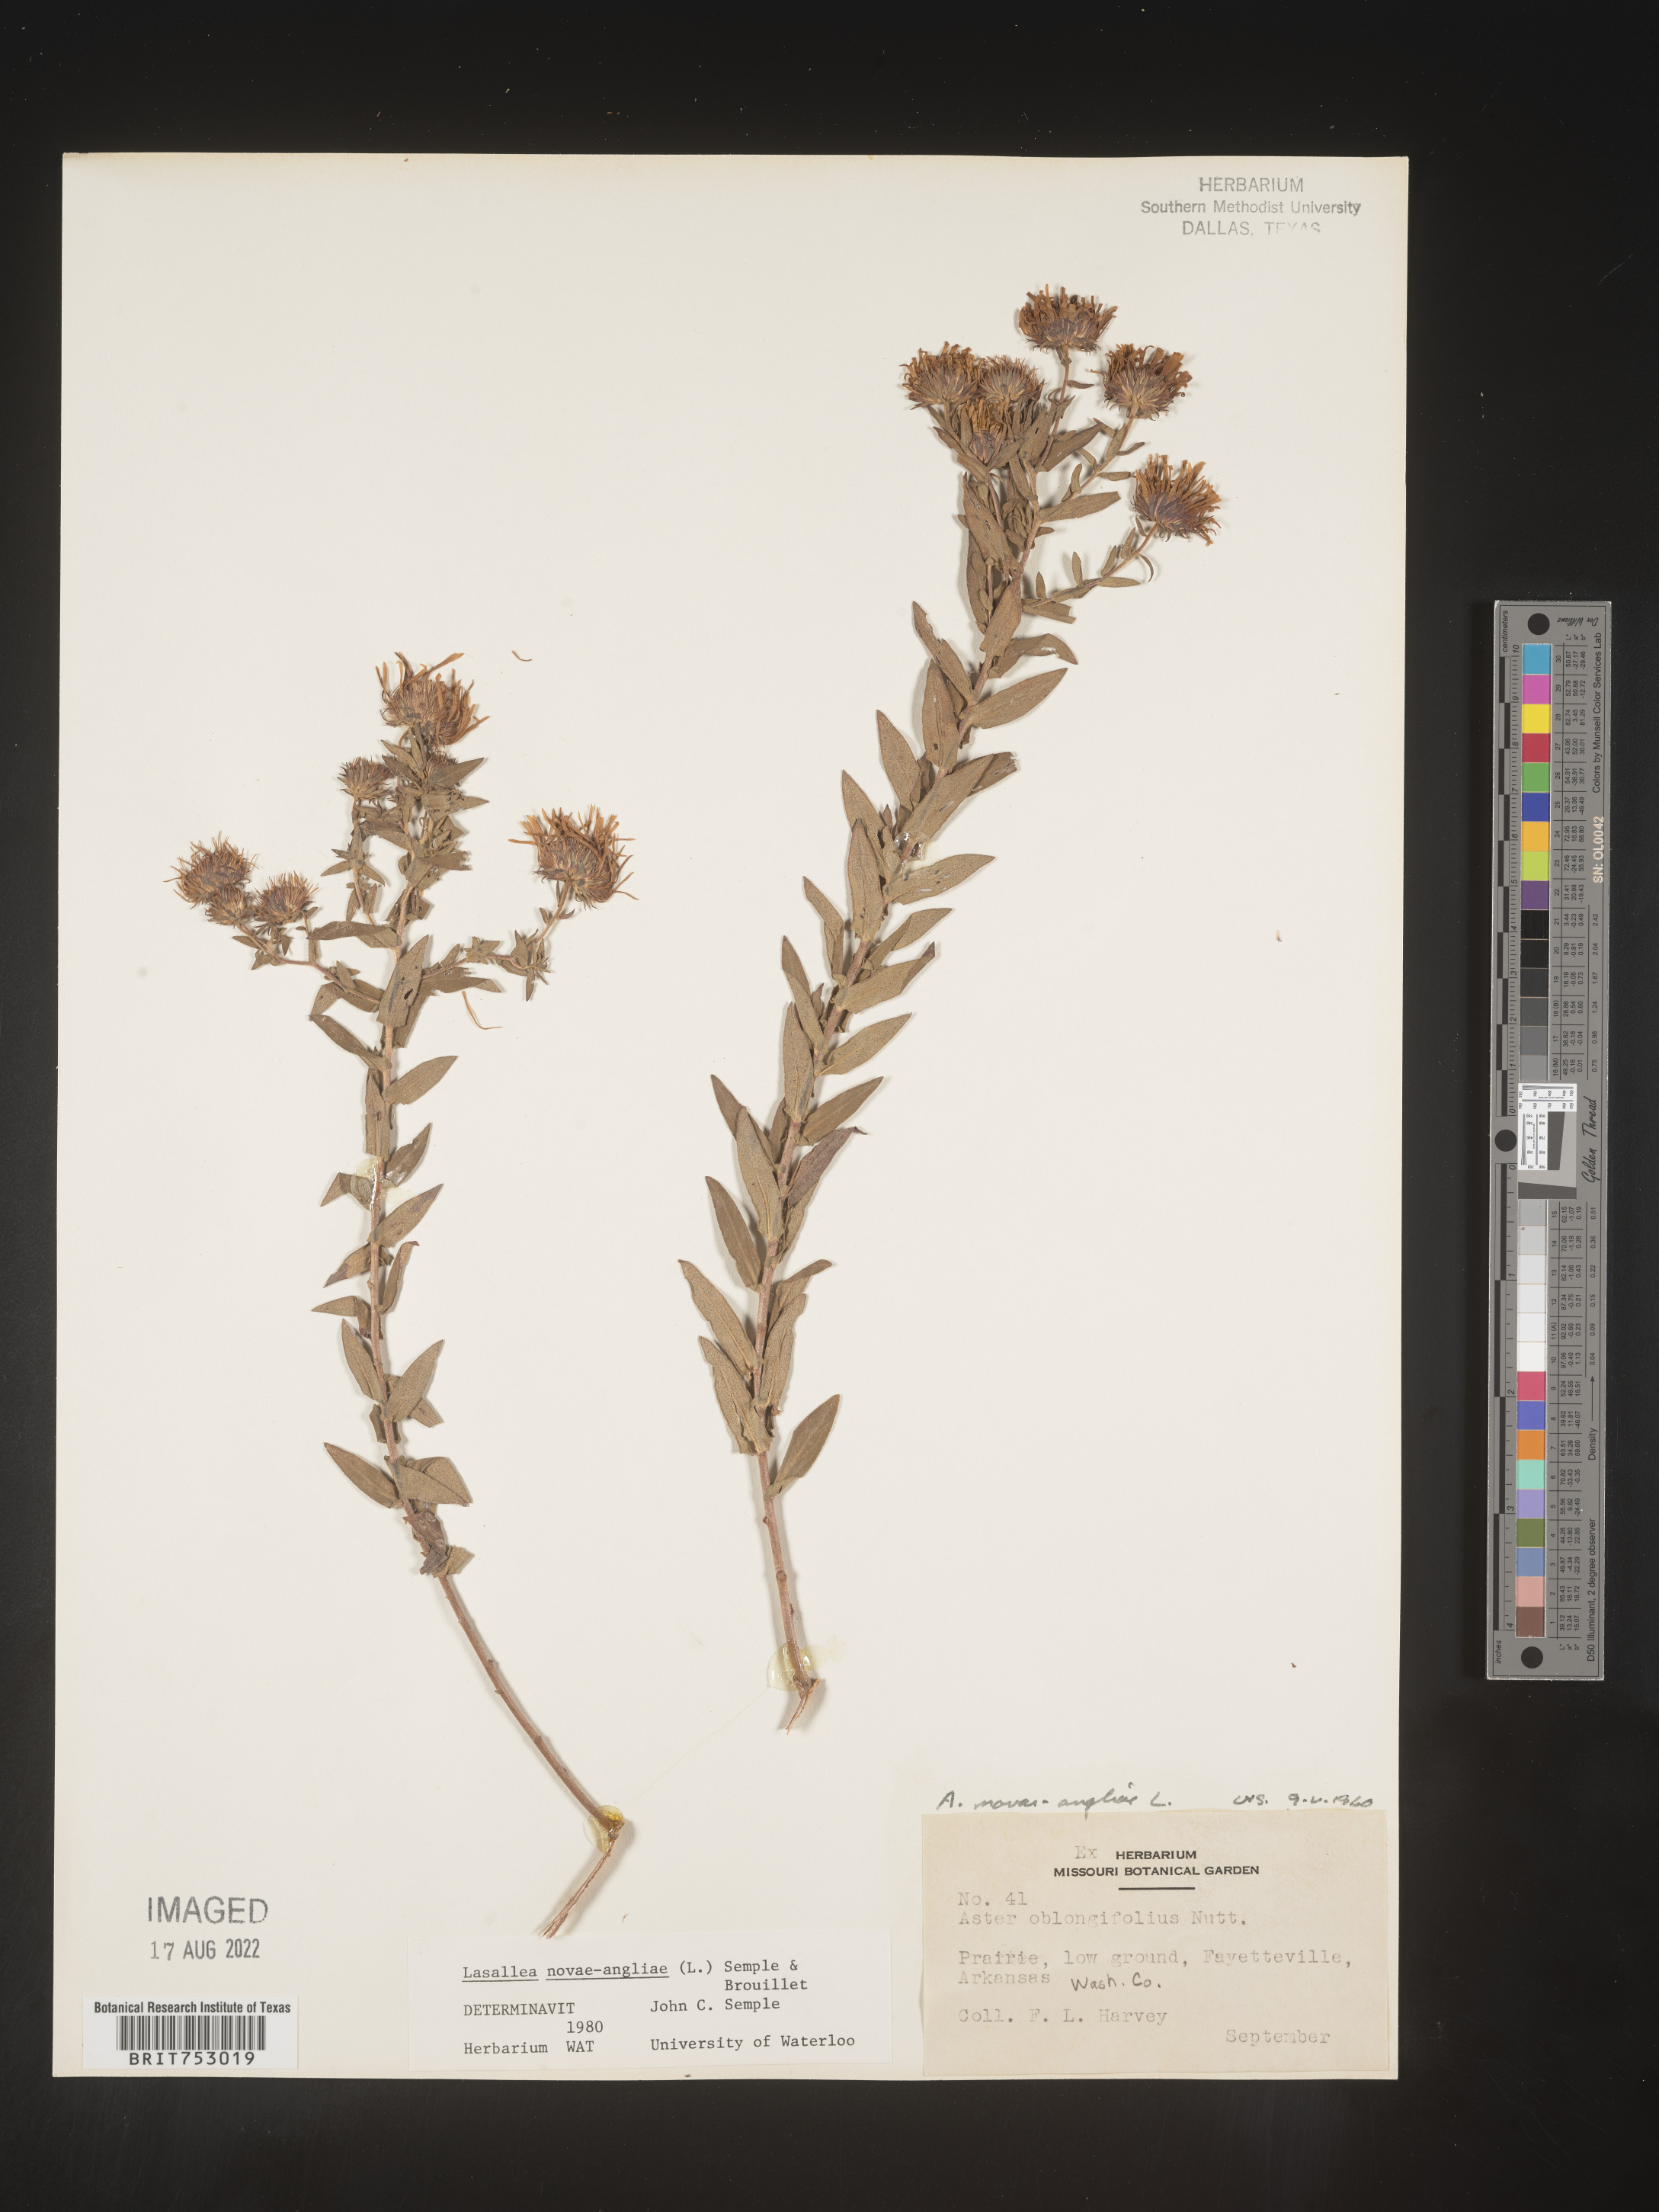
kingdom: Plantae
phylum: Tracheophyta
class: Magnoliopsida
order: Asterales
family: Asteraceae
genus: Symphyotrichum
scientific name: Symphyotrichum novae-angliae
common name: Michaelmas daisy
